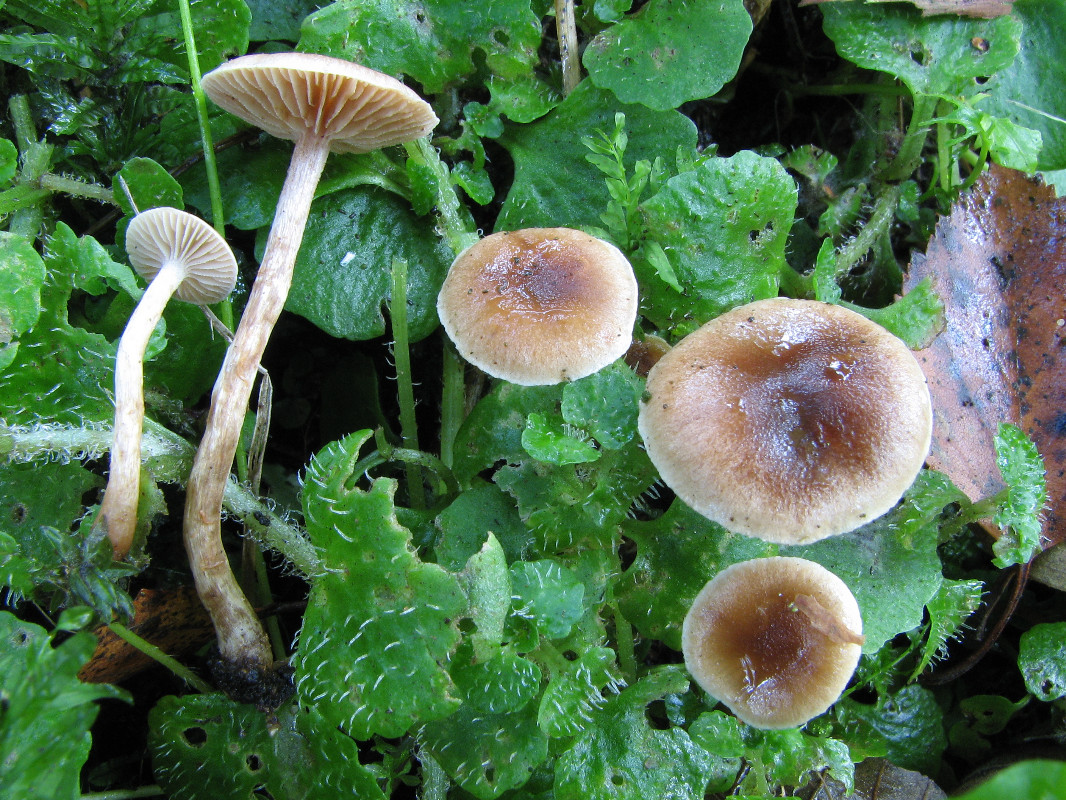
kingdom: Fungi
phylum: Basidiomycota
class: Agaricomycetes
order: Agaricales
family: Hymenogastraceae
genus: Hebeloma
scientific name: Hebeloma nigellum
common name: sortbrun tåreblad
